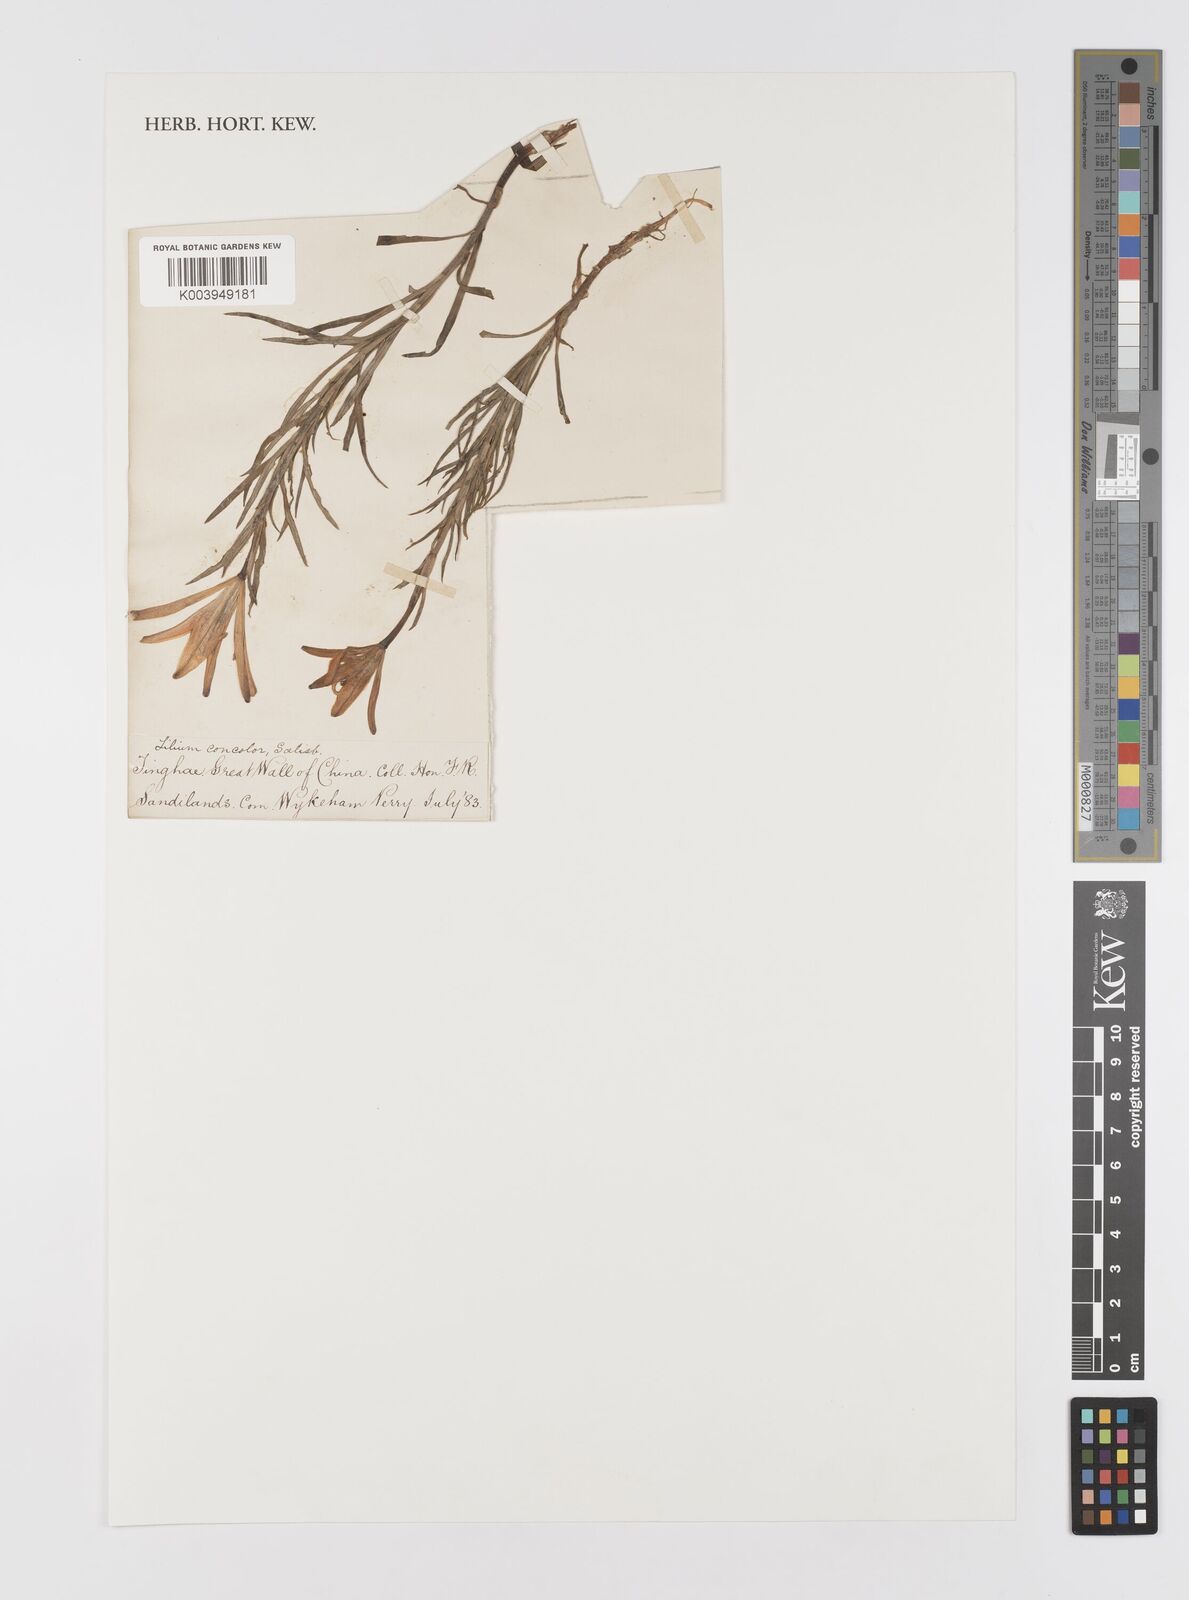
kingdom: Plantae
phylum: Tracheophyta
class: Liliopsida
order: Liliales
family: Liliaceae
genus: Lilium
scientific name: Lilium concolor
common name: Morning-star lily
